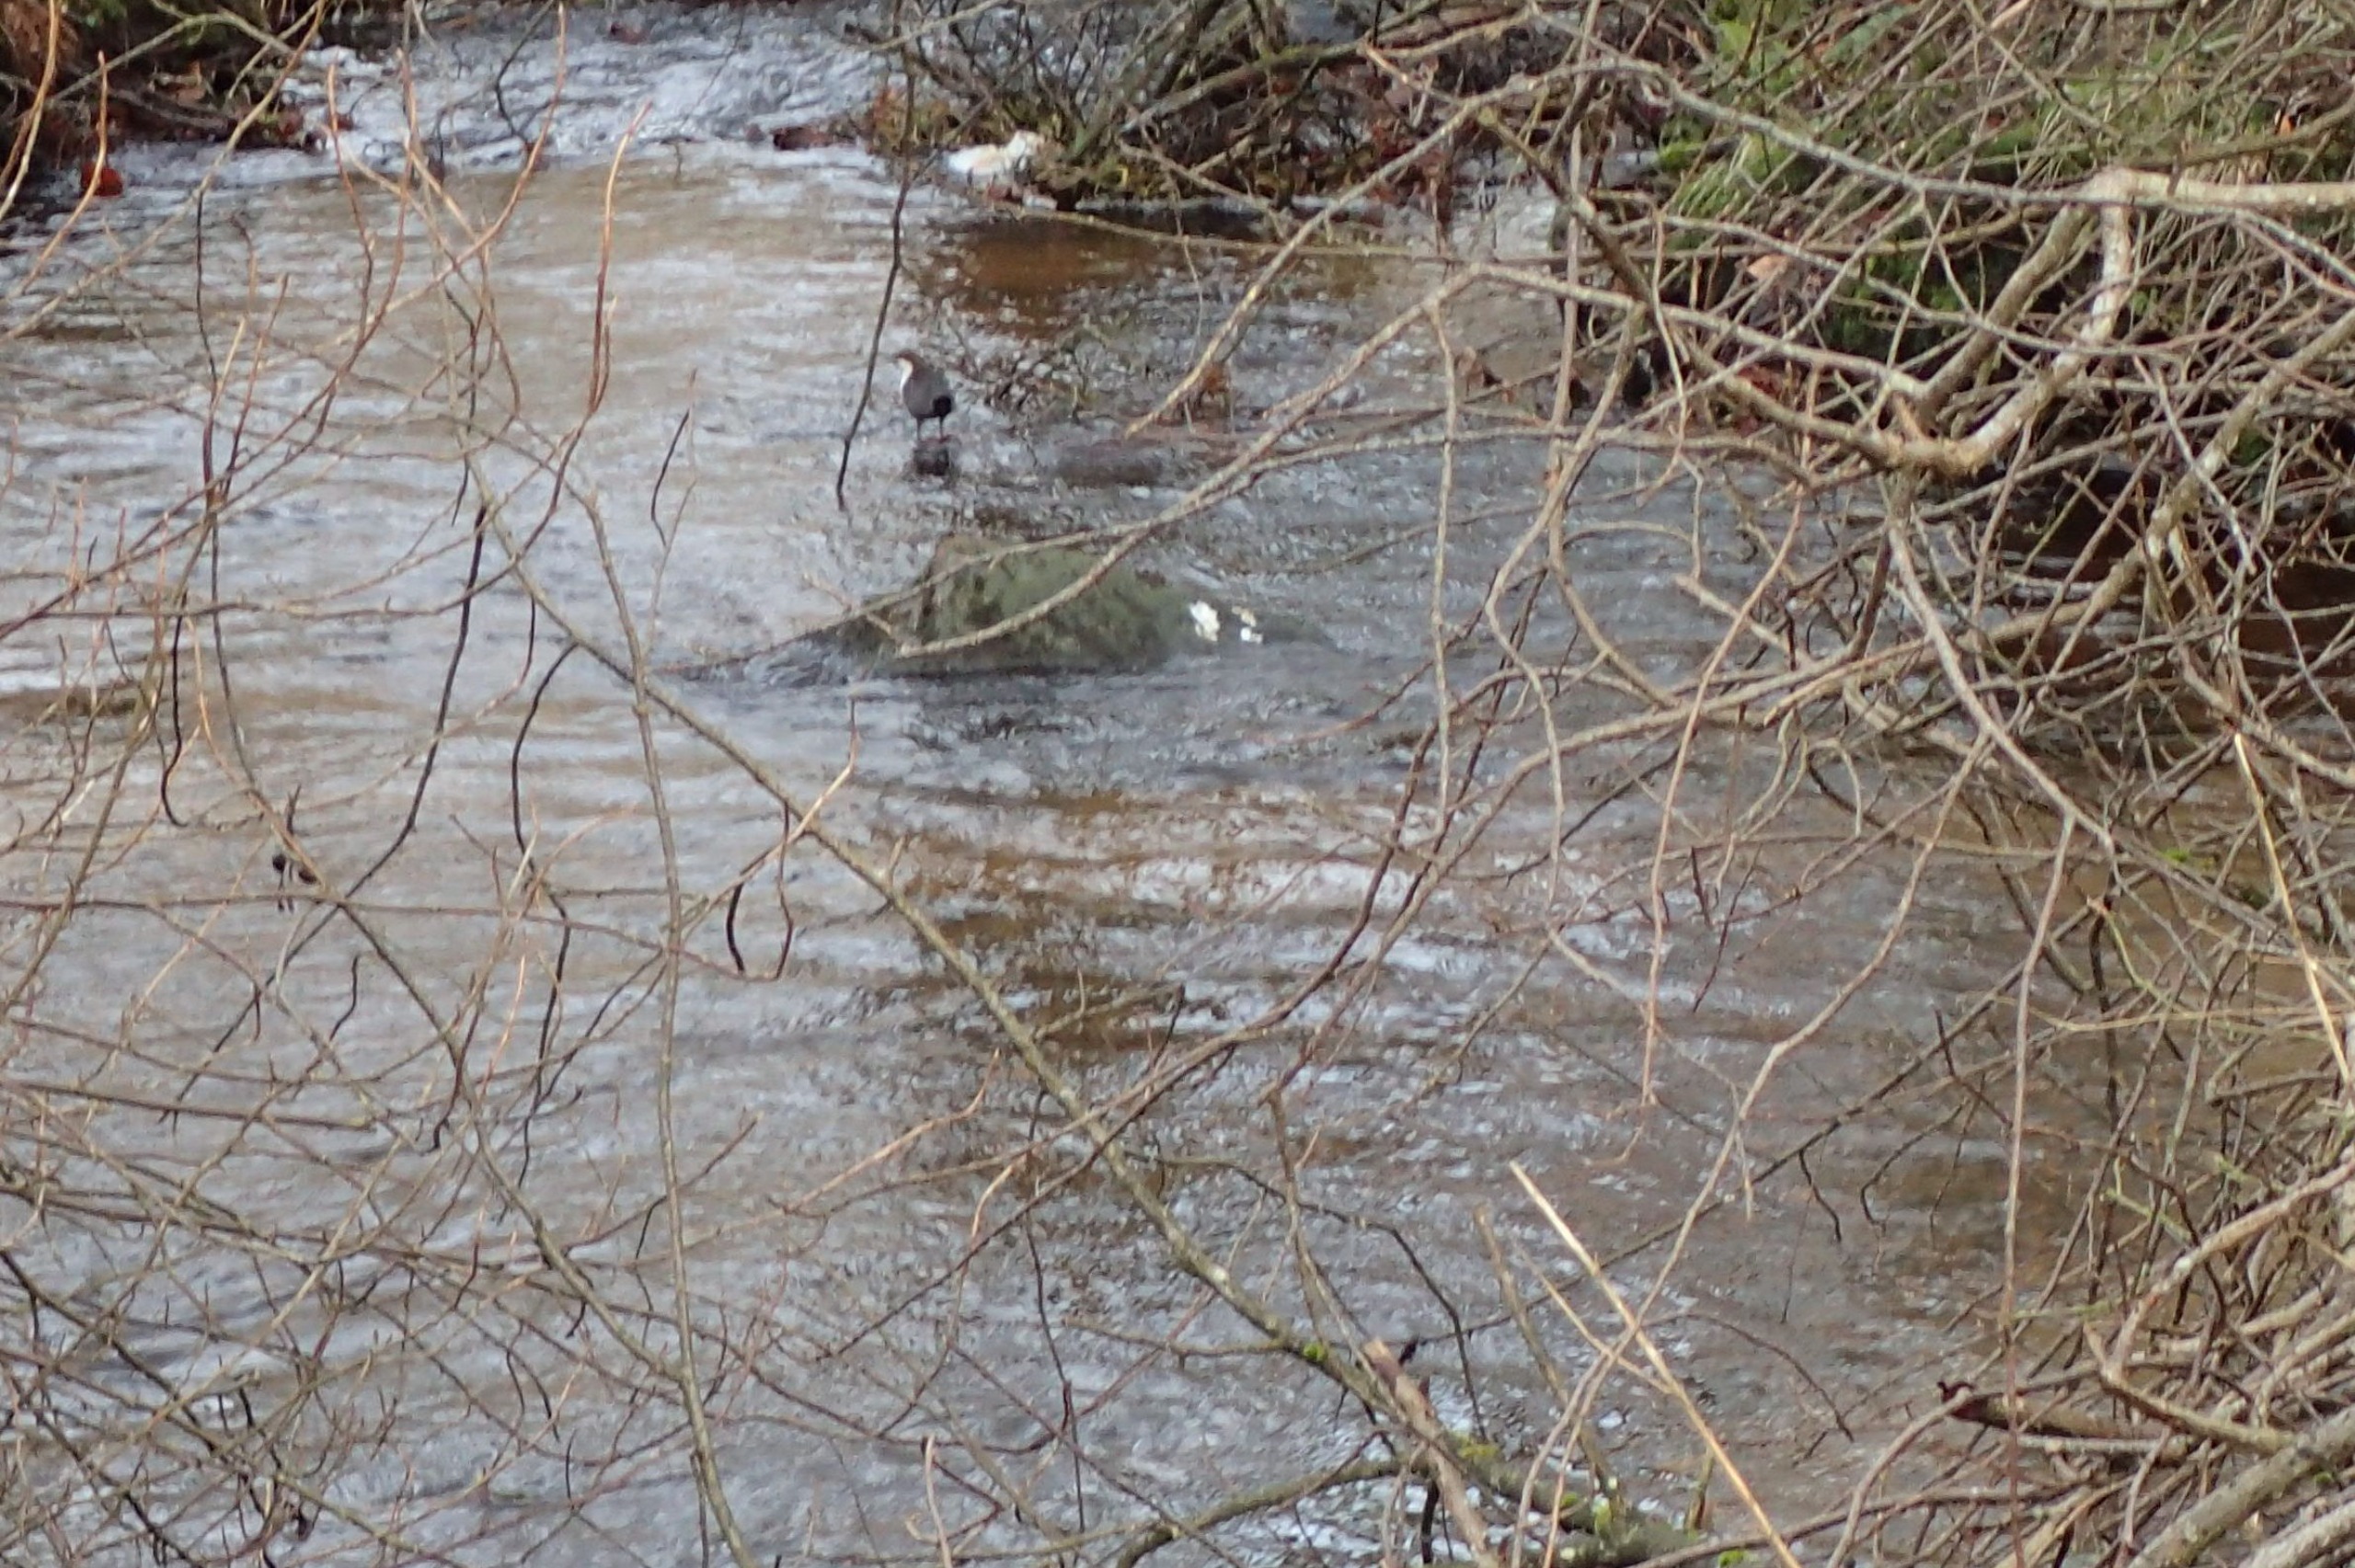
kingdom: Animalia
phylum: Chordata
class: Aves
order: Passeriformes
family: Cinclidae
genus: Cinclus
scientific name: Cinclus cinclus
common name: Vandstær
